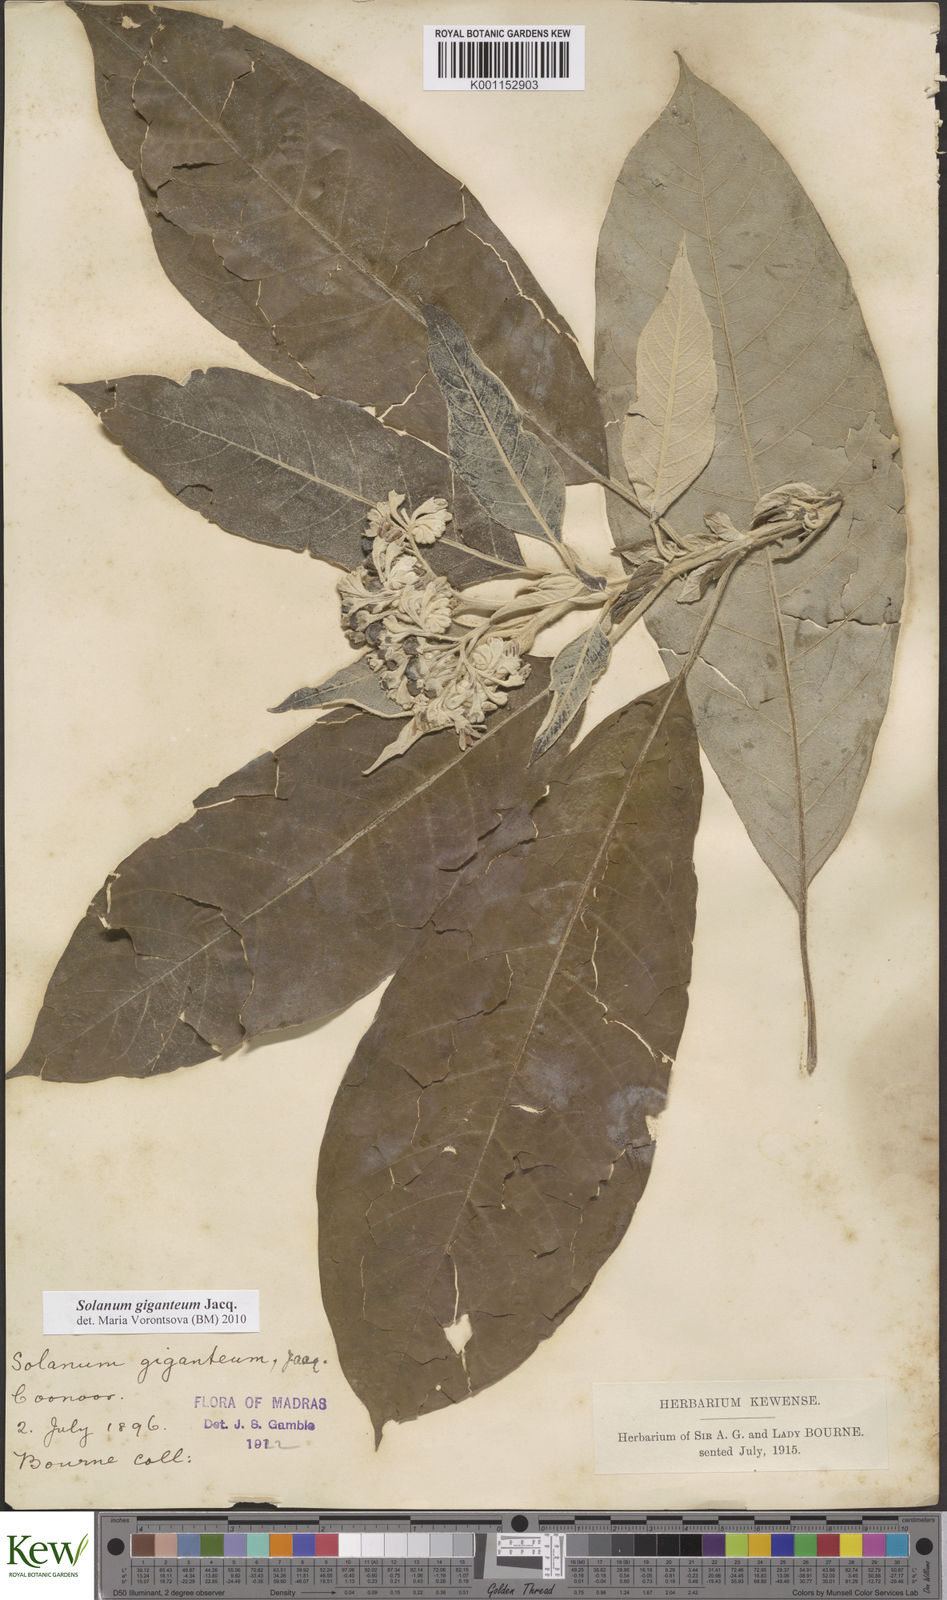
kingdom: Plantae
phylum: Tracheophyta
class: Magnoliopsida
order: Solanales
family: Solanaceae
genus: Solanum
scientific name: Solanum giganteum
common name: Healing-leaf-tree
